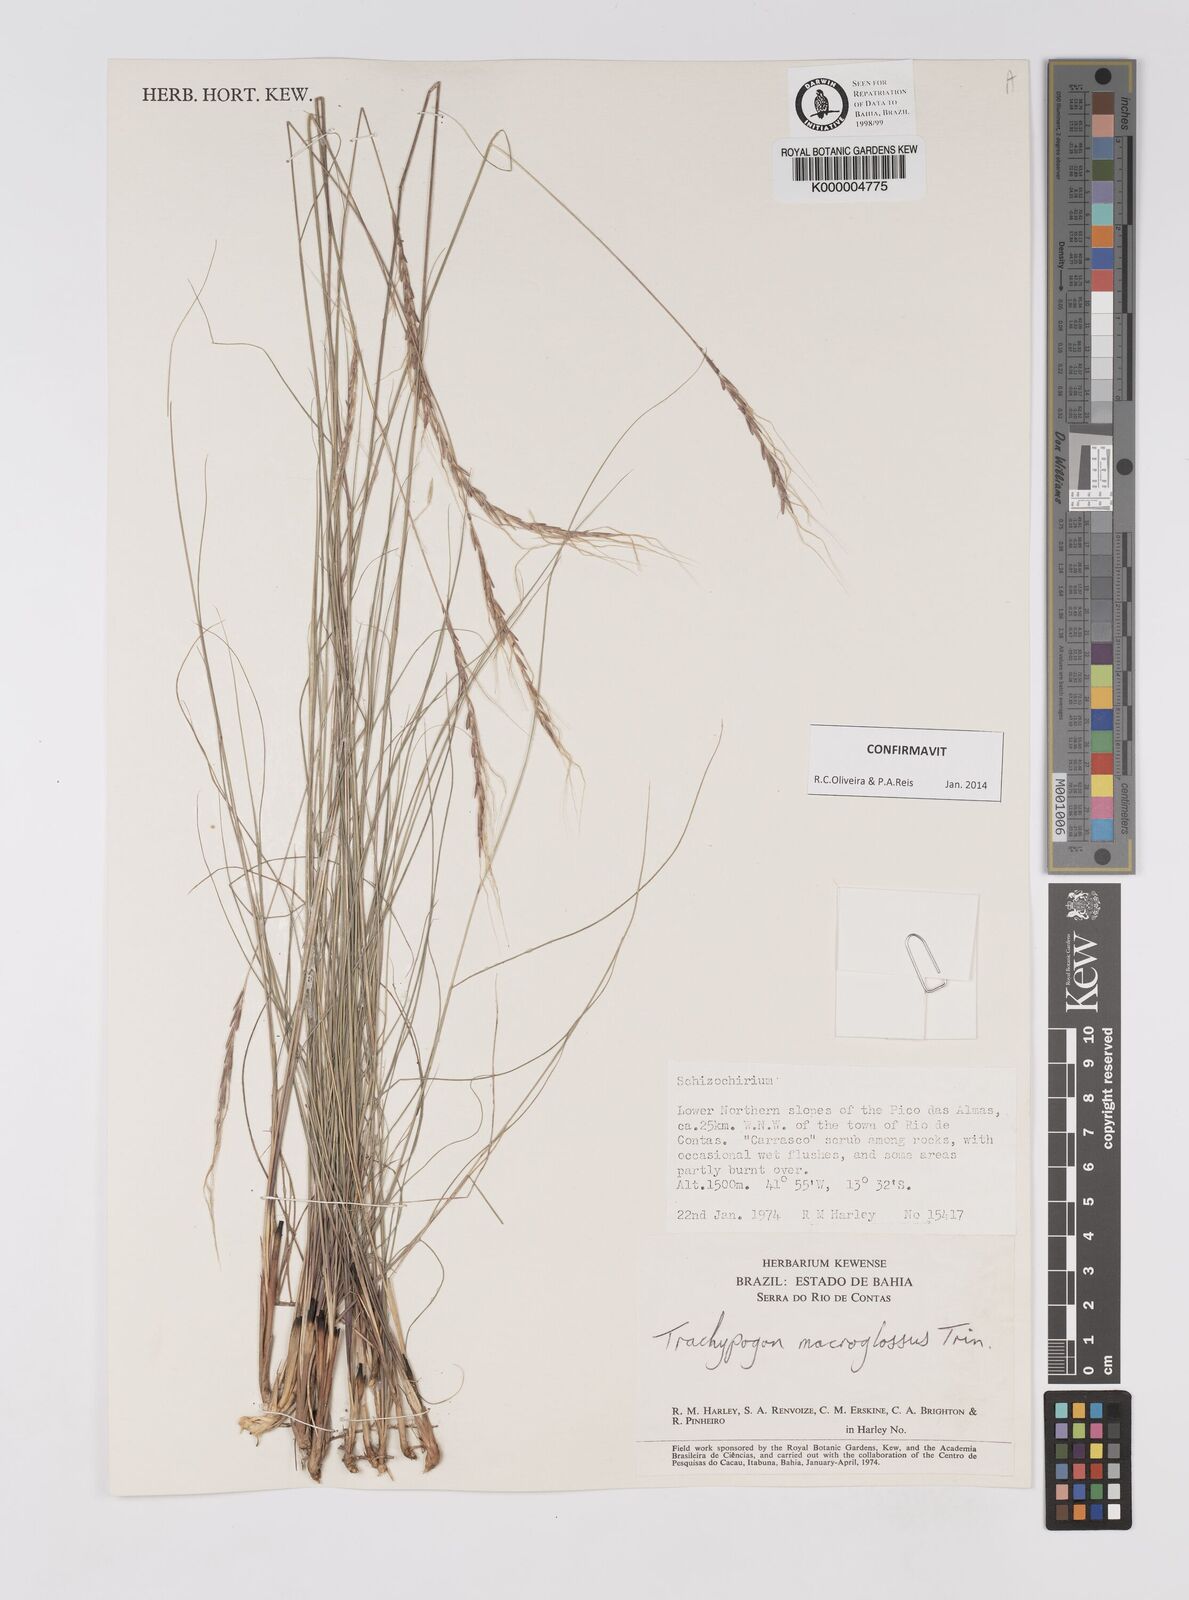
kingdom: Plantae
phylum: Tracheophyta
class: Liliopsida
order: Poales
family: Poaceae
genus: Trachypogon
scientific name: Trachypogon macroglossus
